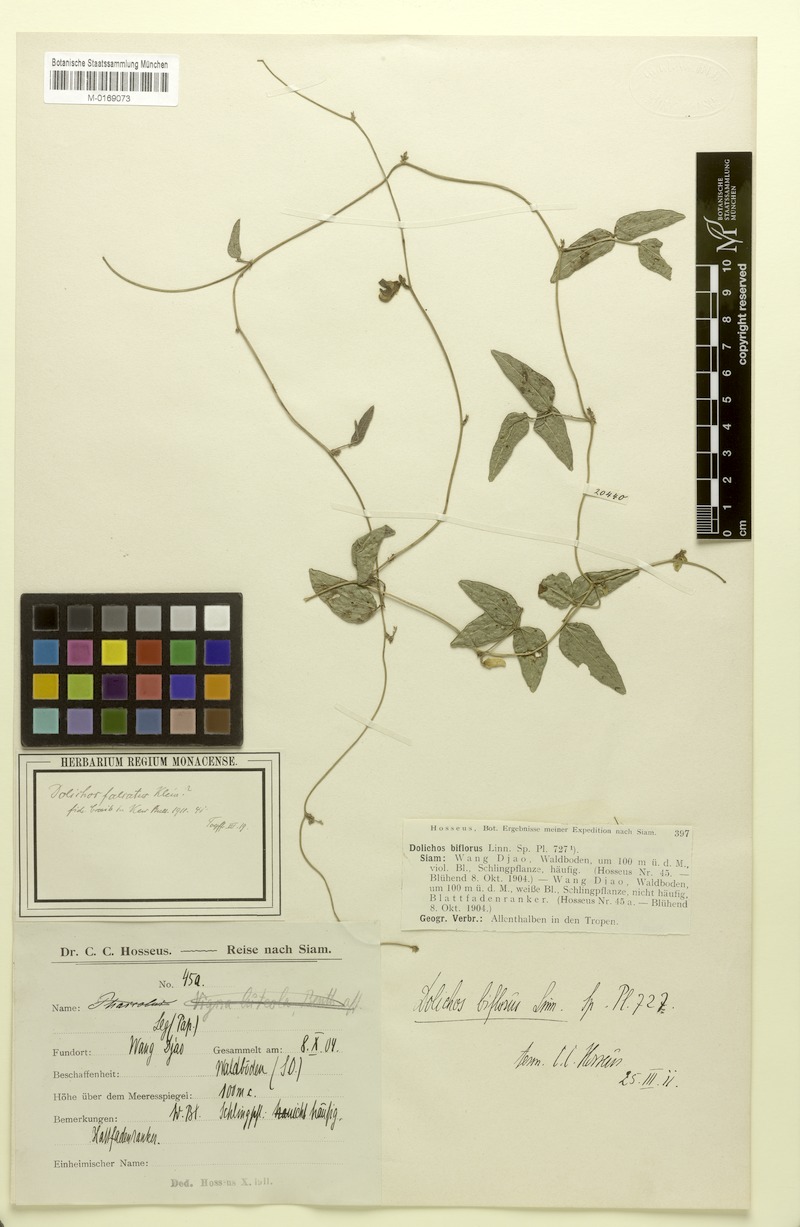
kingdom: Plantae
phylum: Tracheophyta
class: Magnoliopsida
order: Fabales
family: Fabaceae
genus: Dolichos
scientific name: Dolichos trilobus
